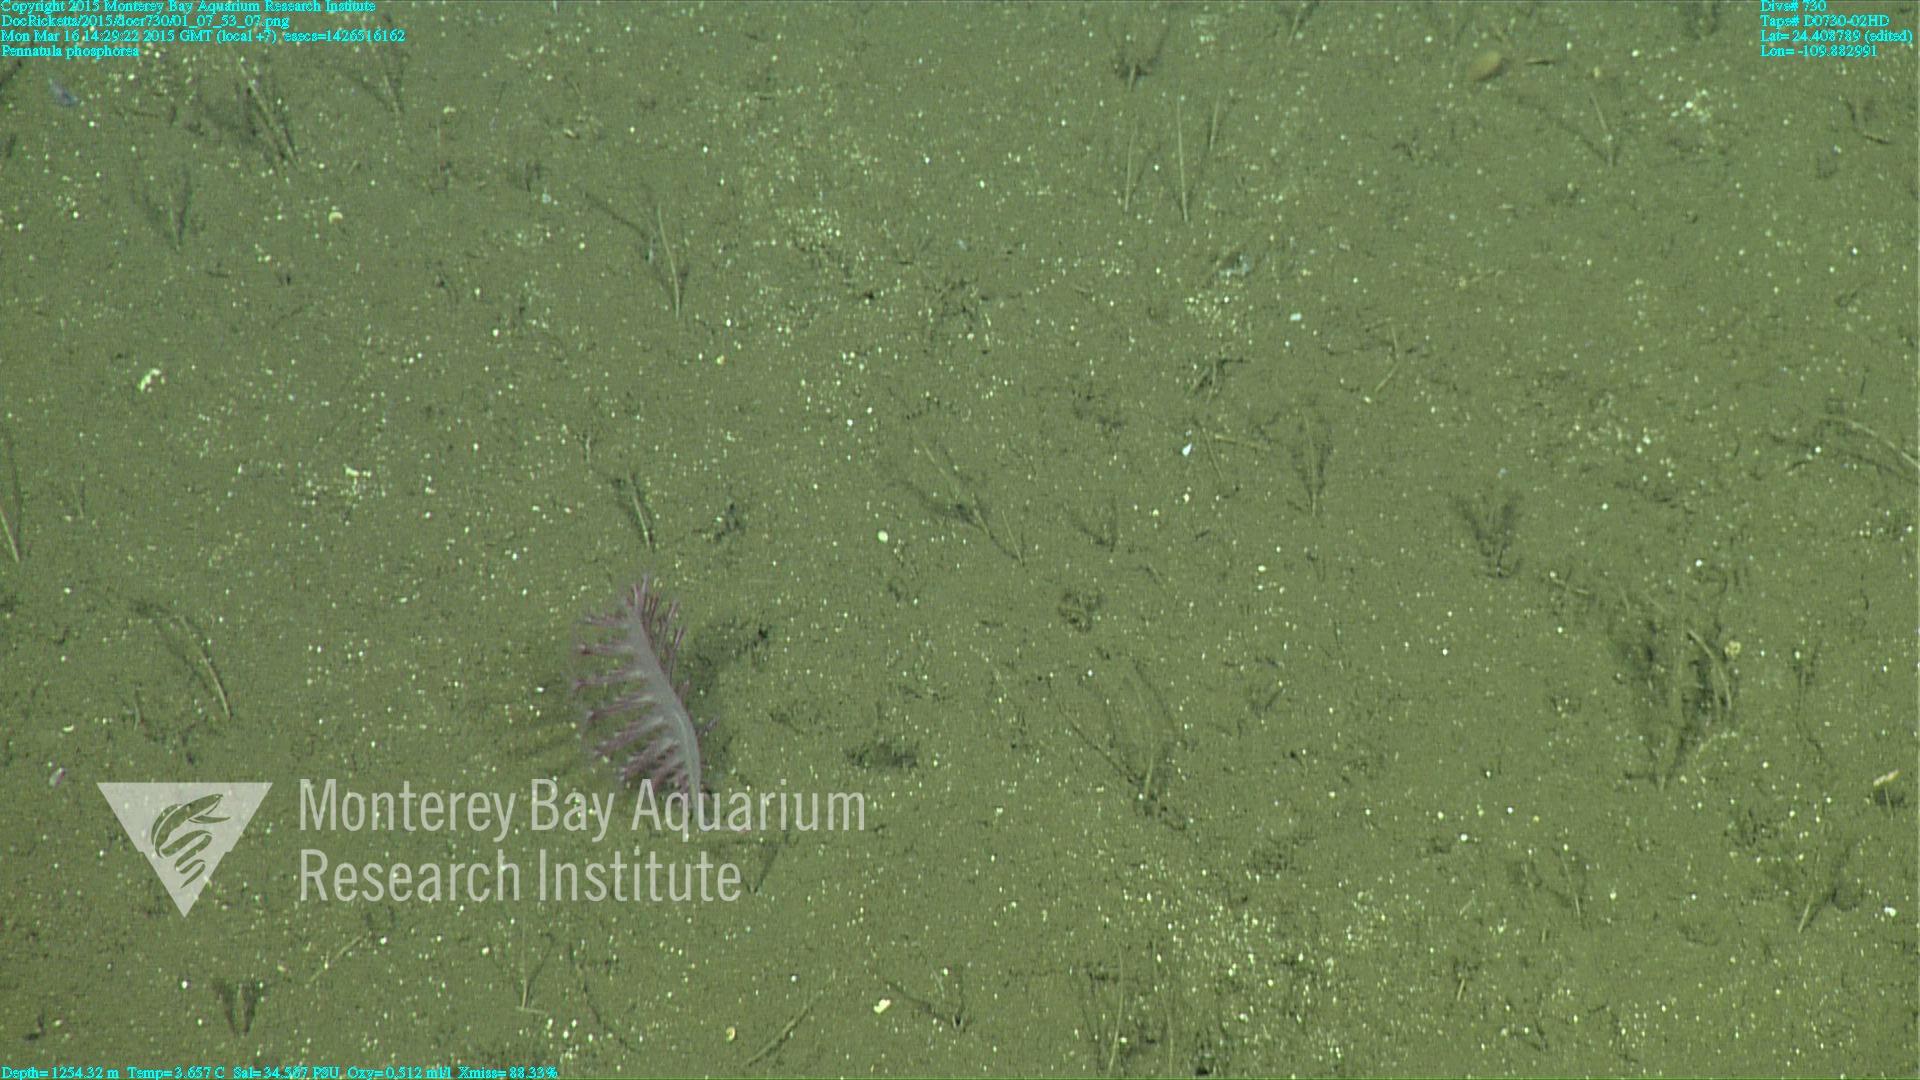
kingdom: Animalia
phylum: Cnidaria
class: Anthozoa
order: Scleralcyonacea
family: Pennatulidae
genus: Pennatula
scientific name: Pennatula phosphorea
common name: Phosphorescent sea pen
